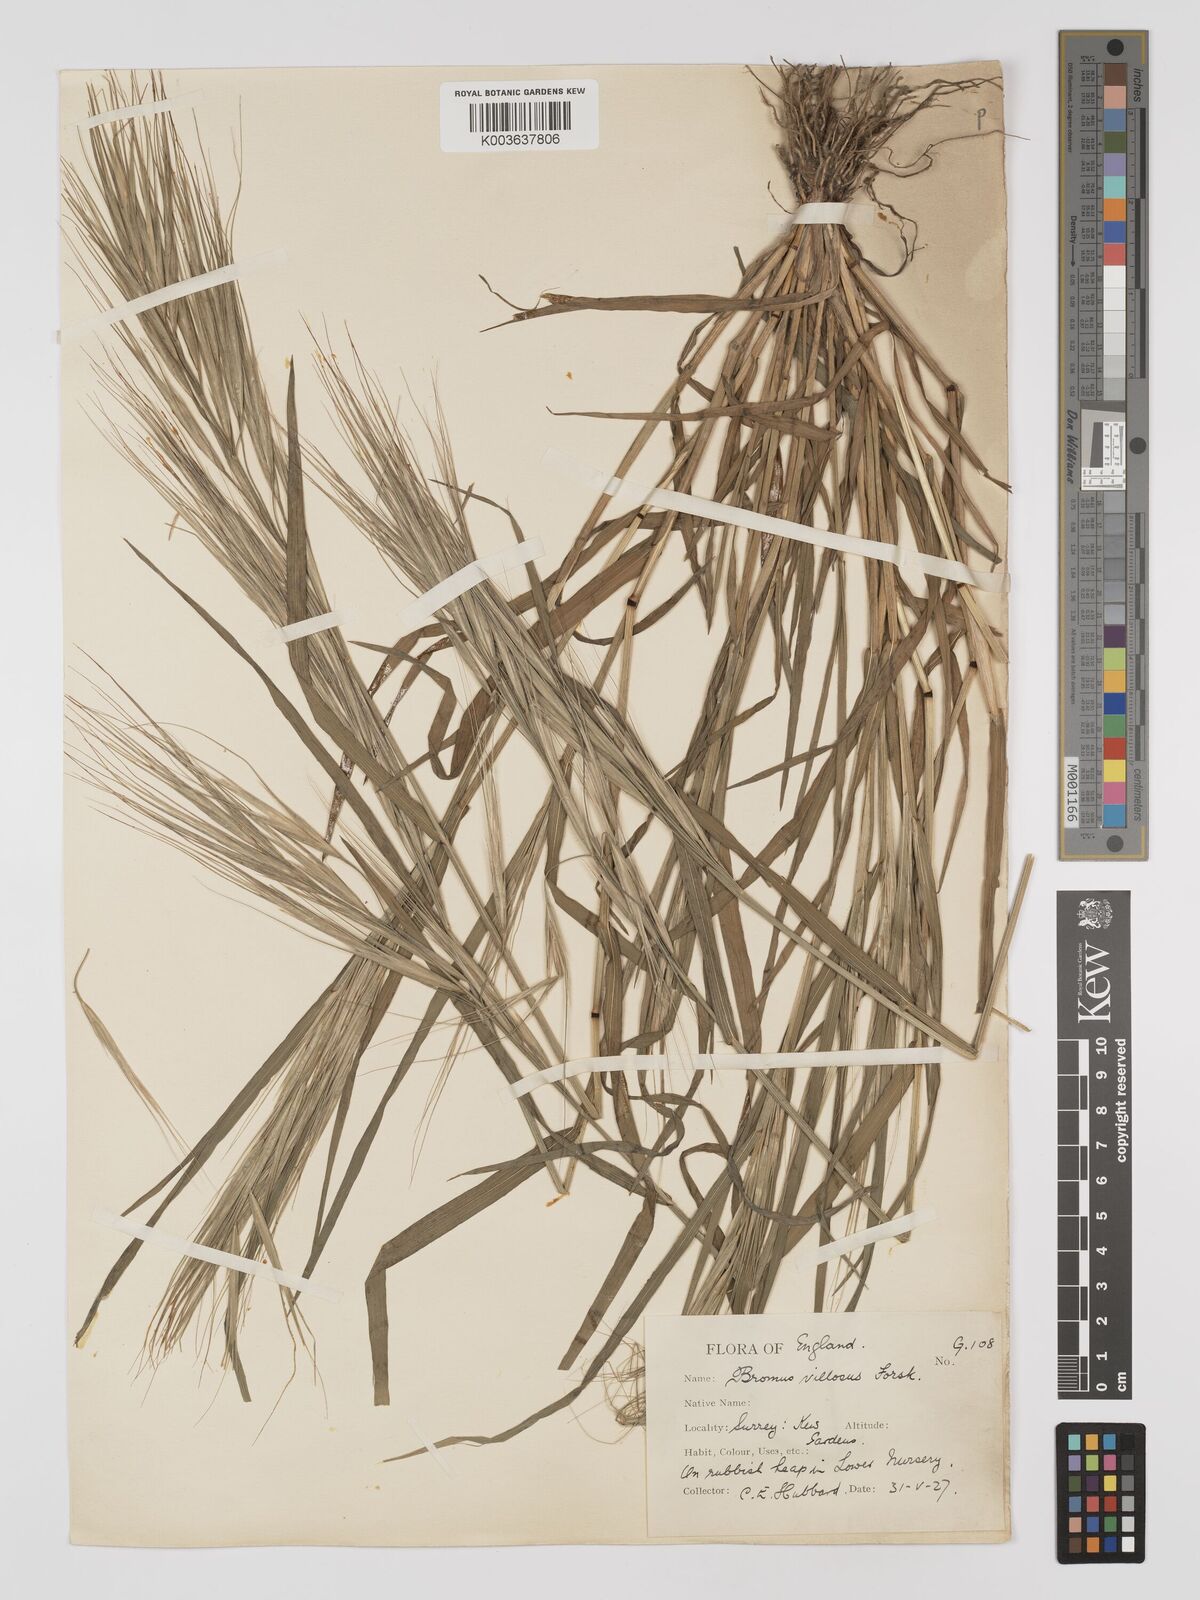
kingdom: Plantae
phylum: Tracheophyta
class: Liliopsida
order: Poales
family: Poaceae
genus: Bromus
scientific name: Bromus
